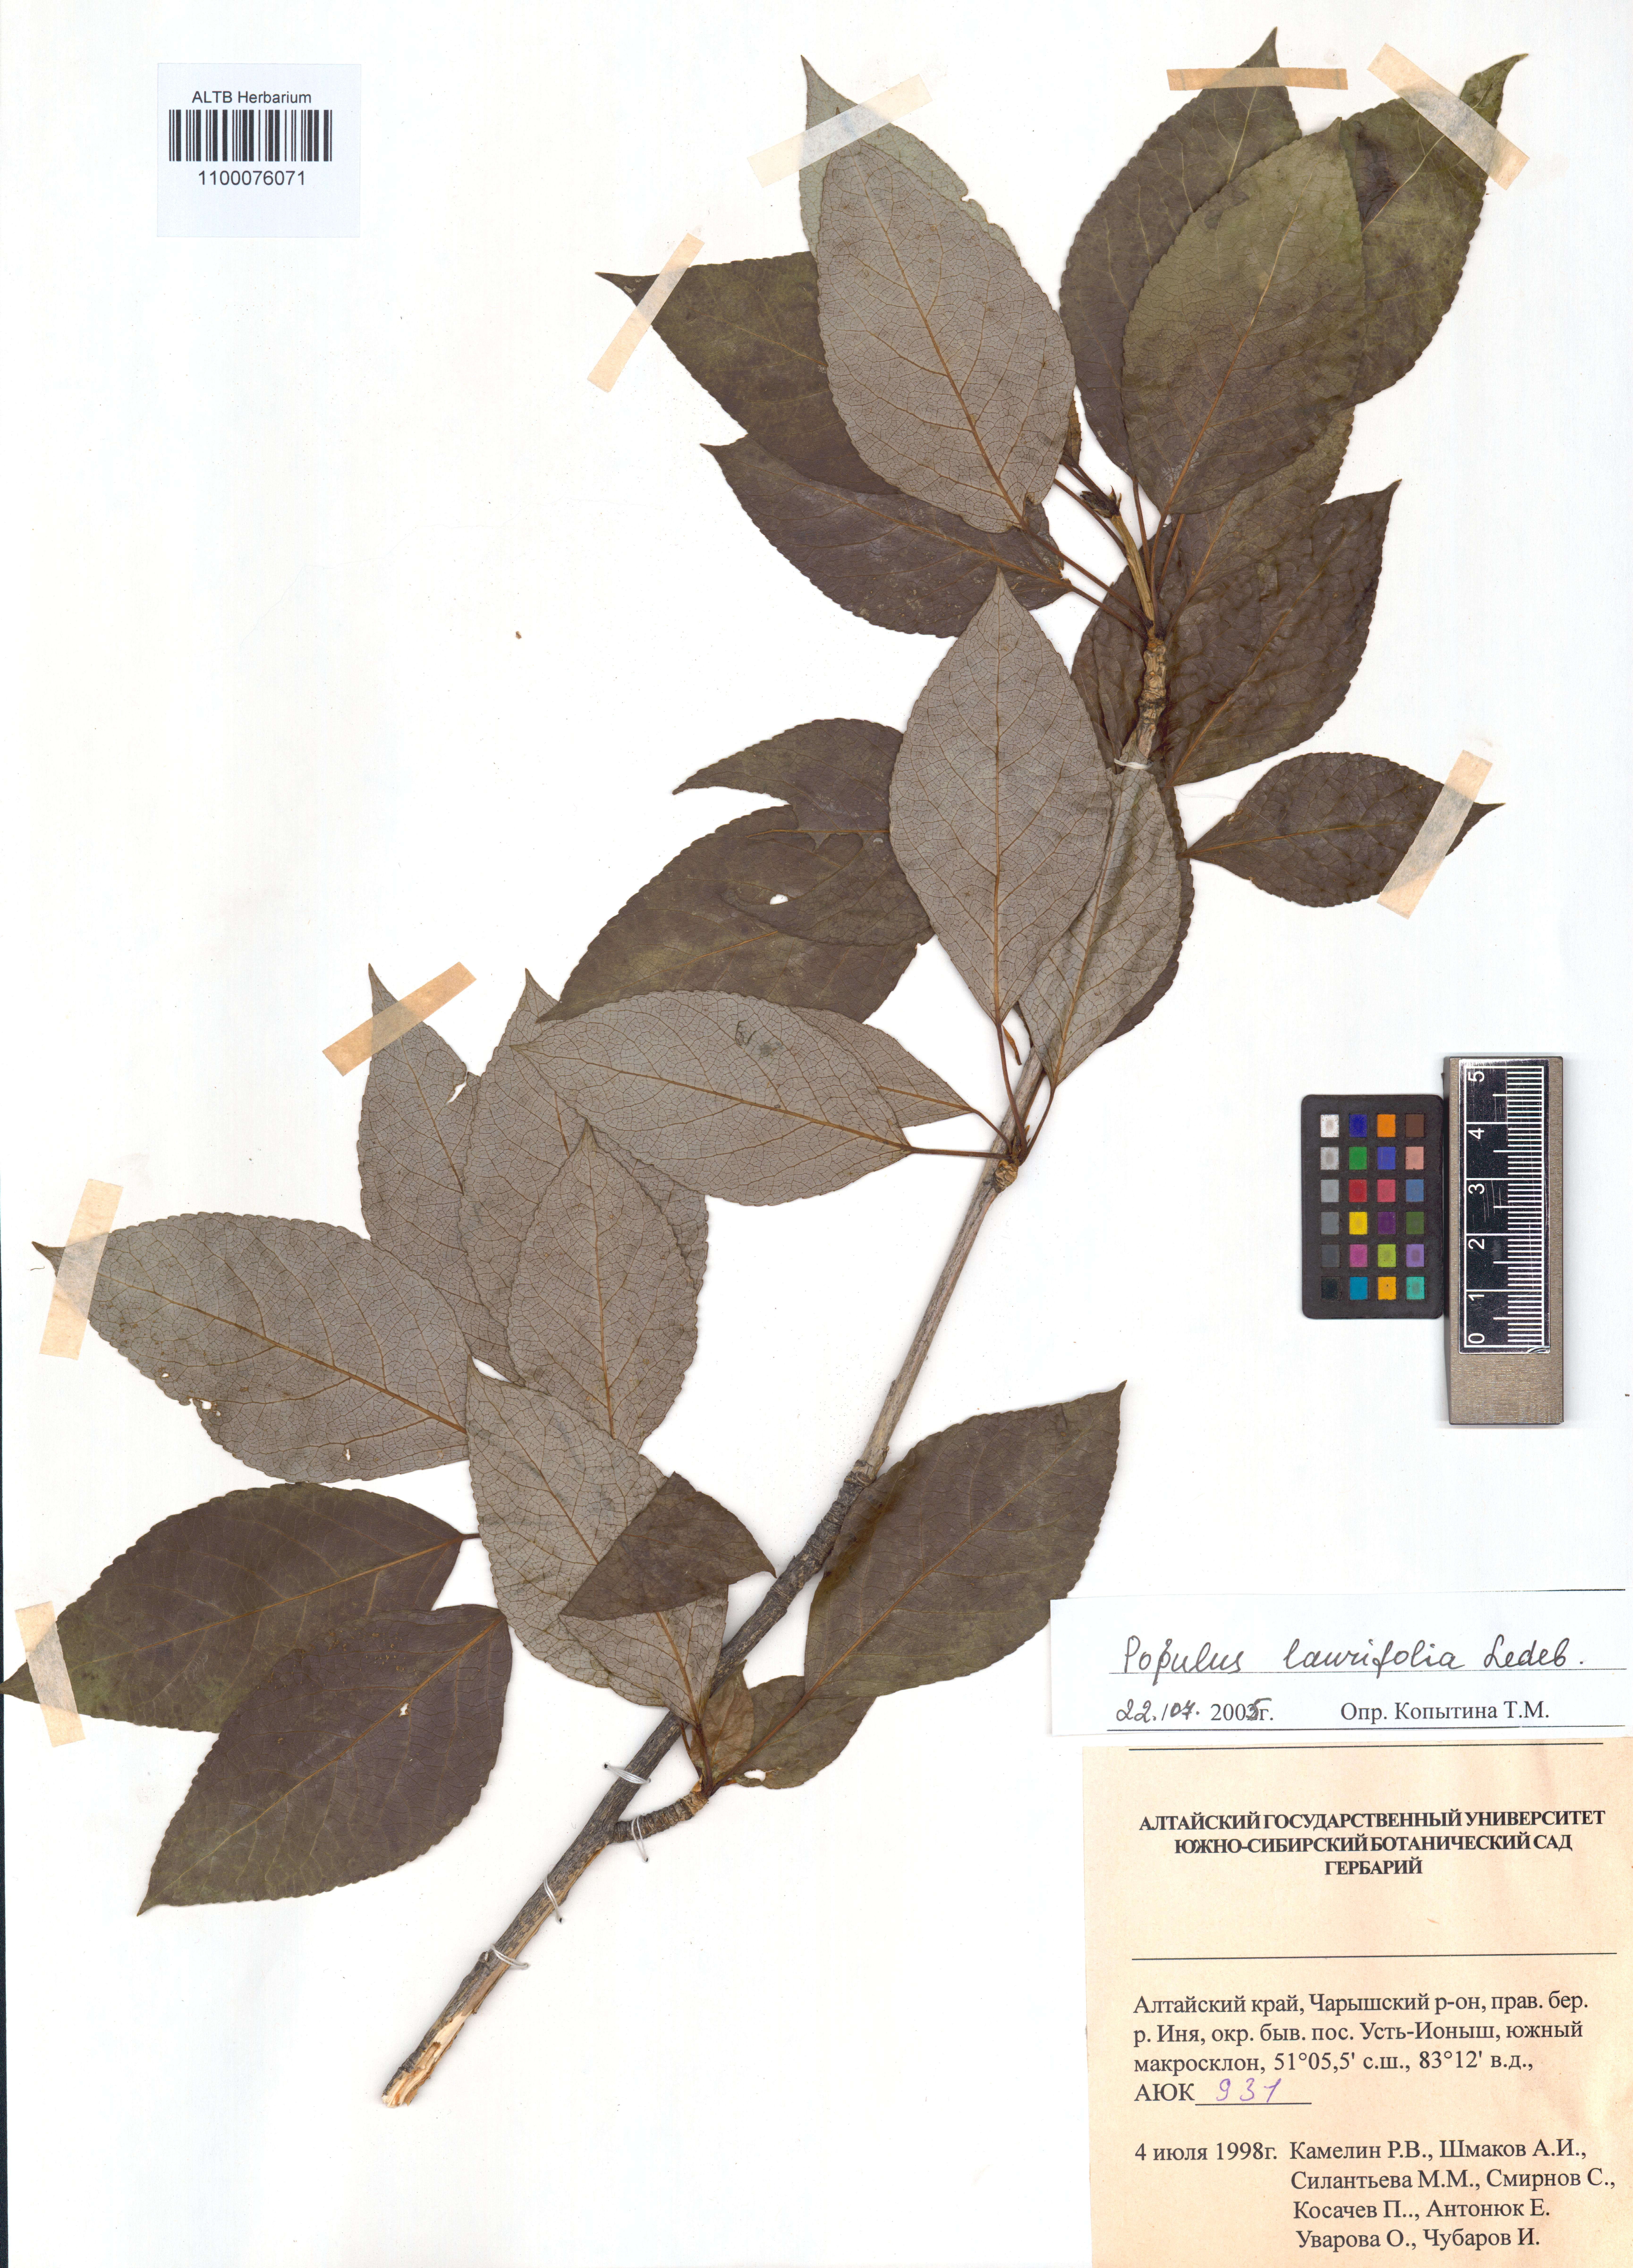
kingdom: Plantae
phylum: Tracheophyta
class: Magnoliopsida
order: Malpighiales
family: Salicaceae
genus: Populus
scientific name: Populus laurifolia
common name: Laurel-leaf poplar
